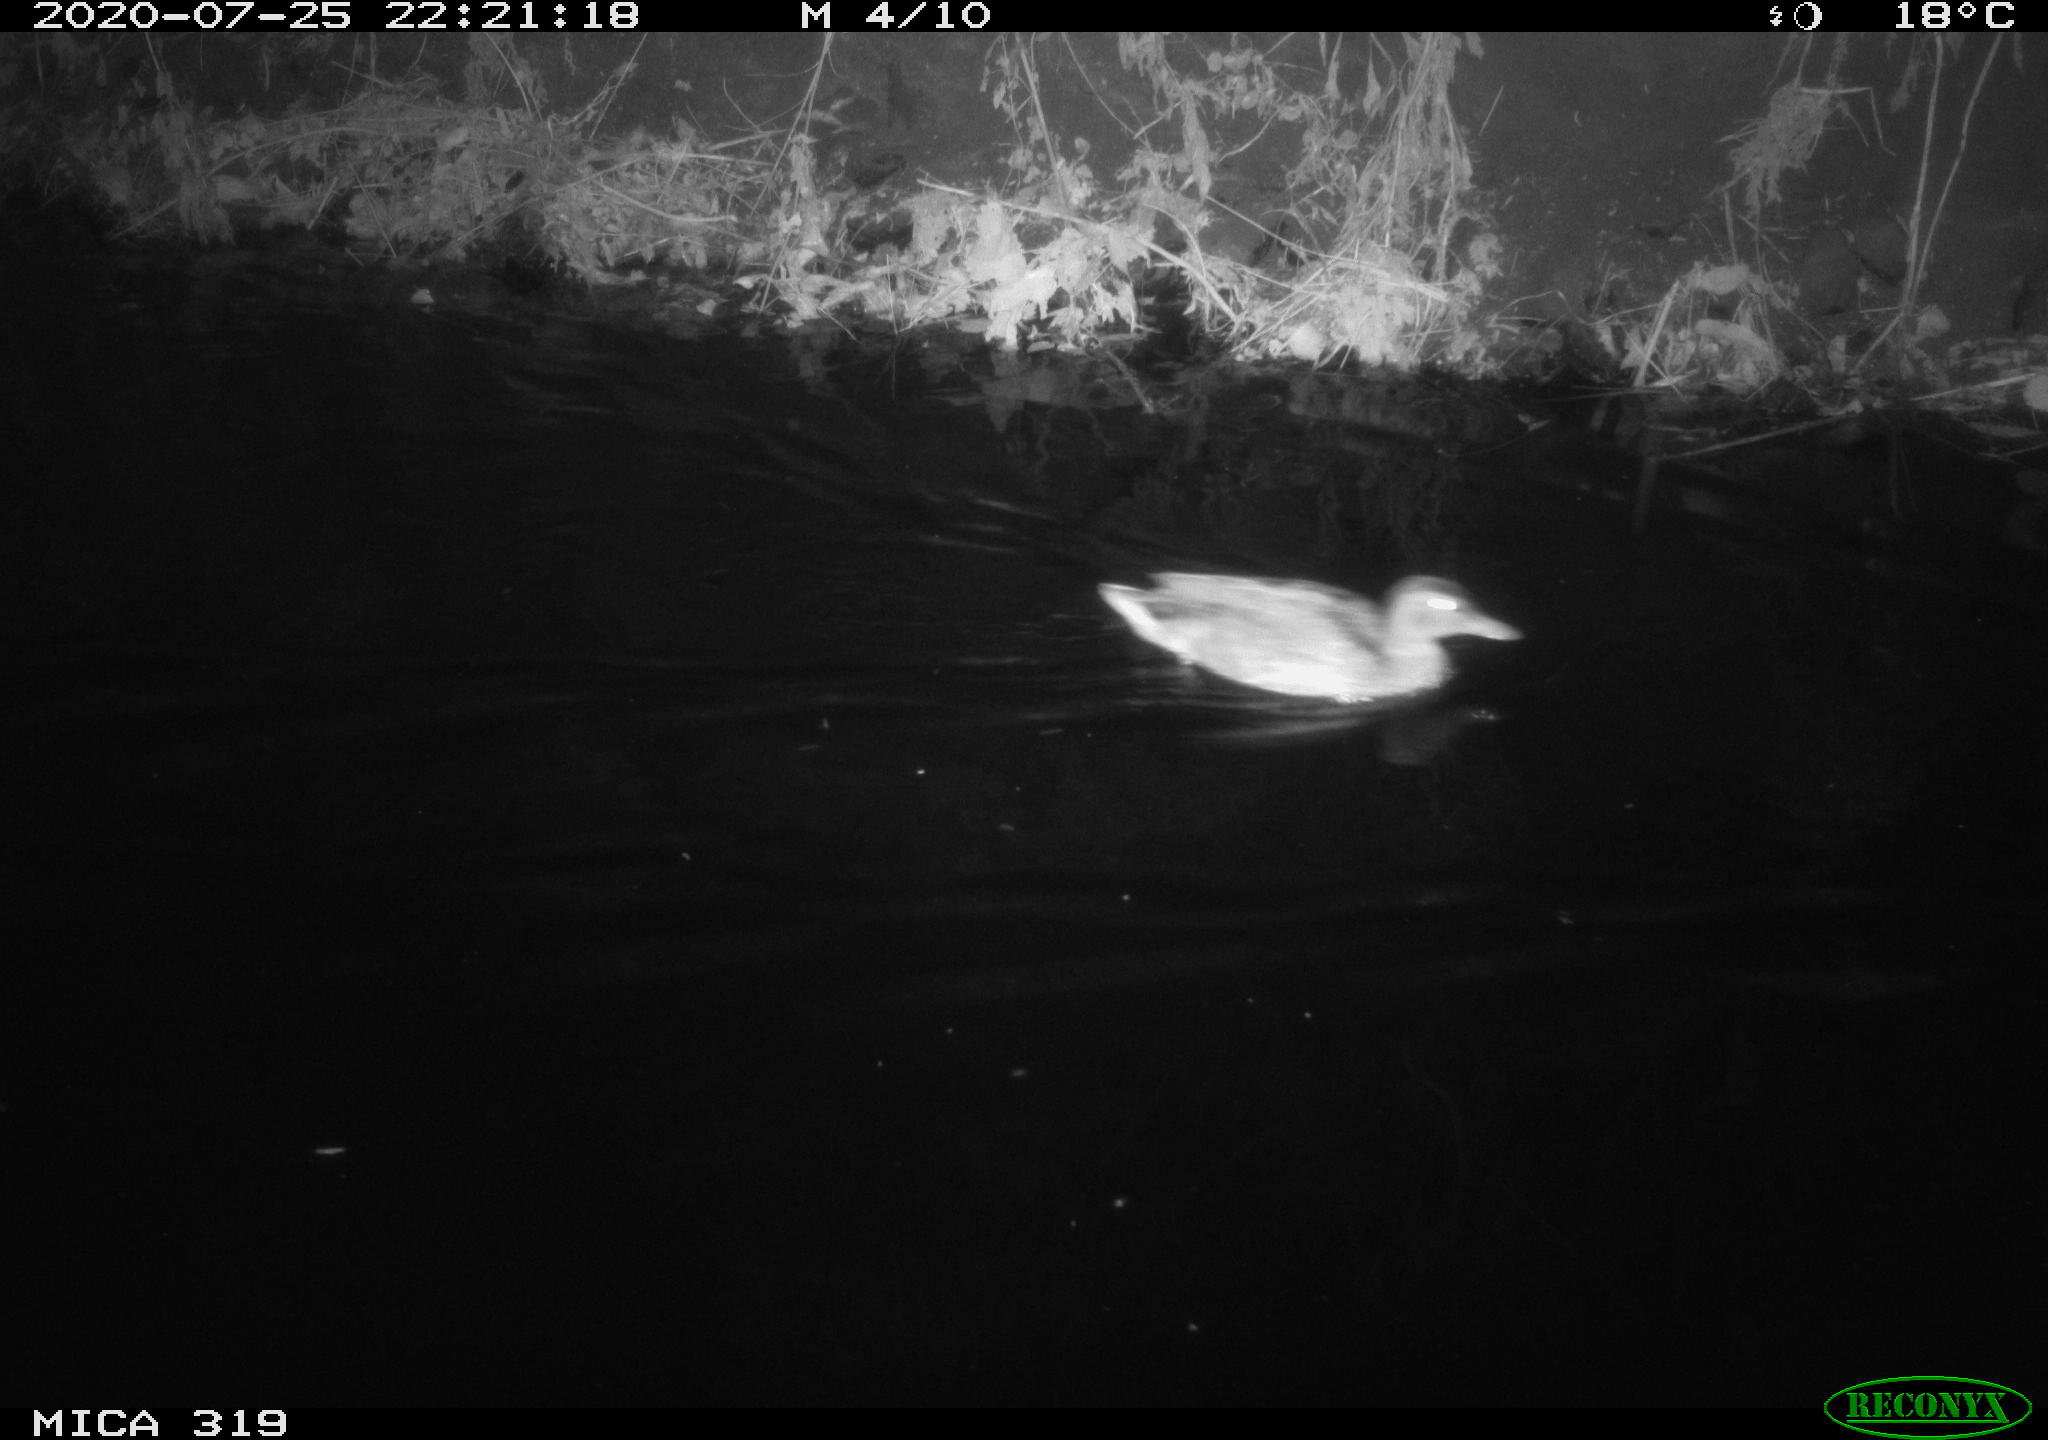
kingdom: Animalia
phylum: Chordata
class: Aves
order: Anseriformes
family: Anatidae
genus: Anas
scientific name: Anas platyrhynchos
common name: Mallard
